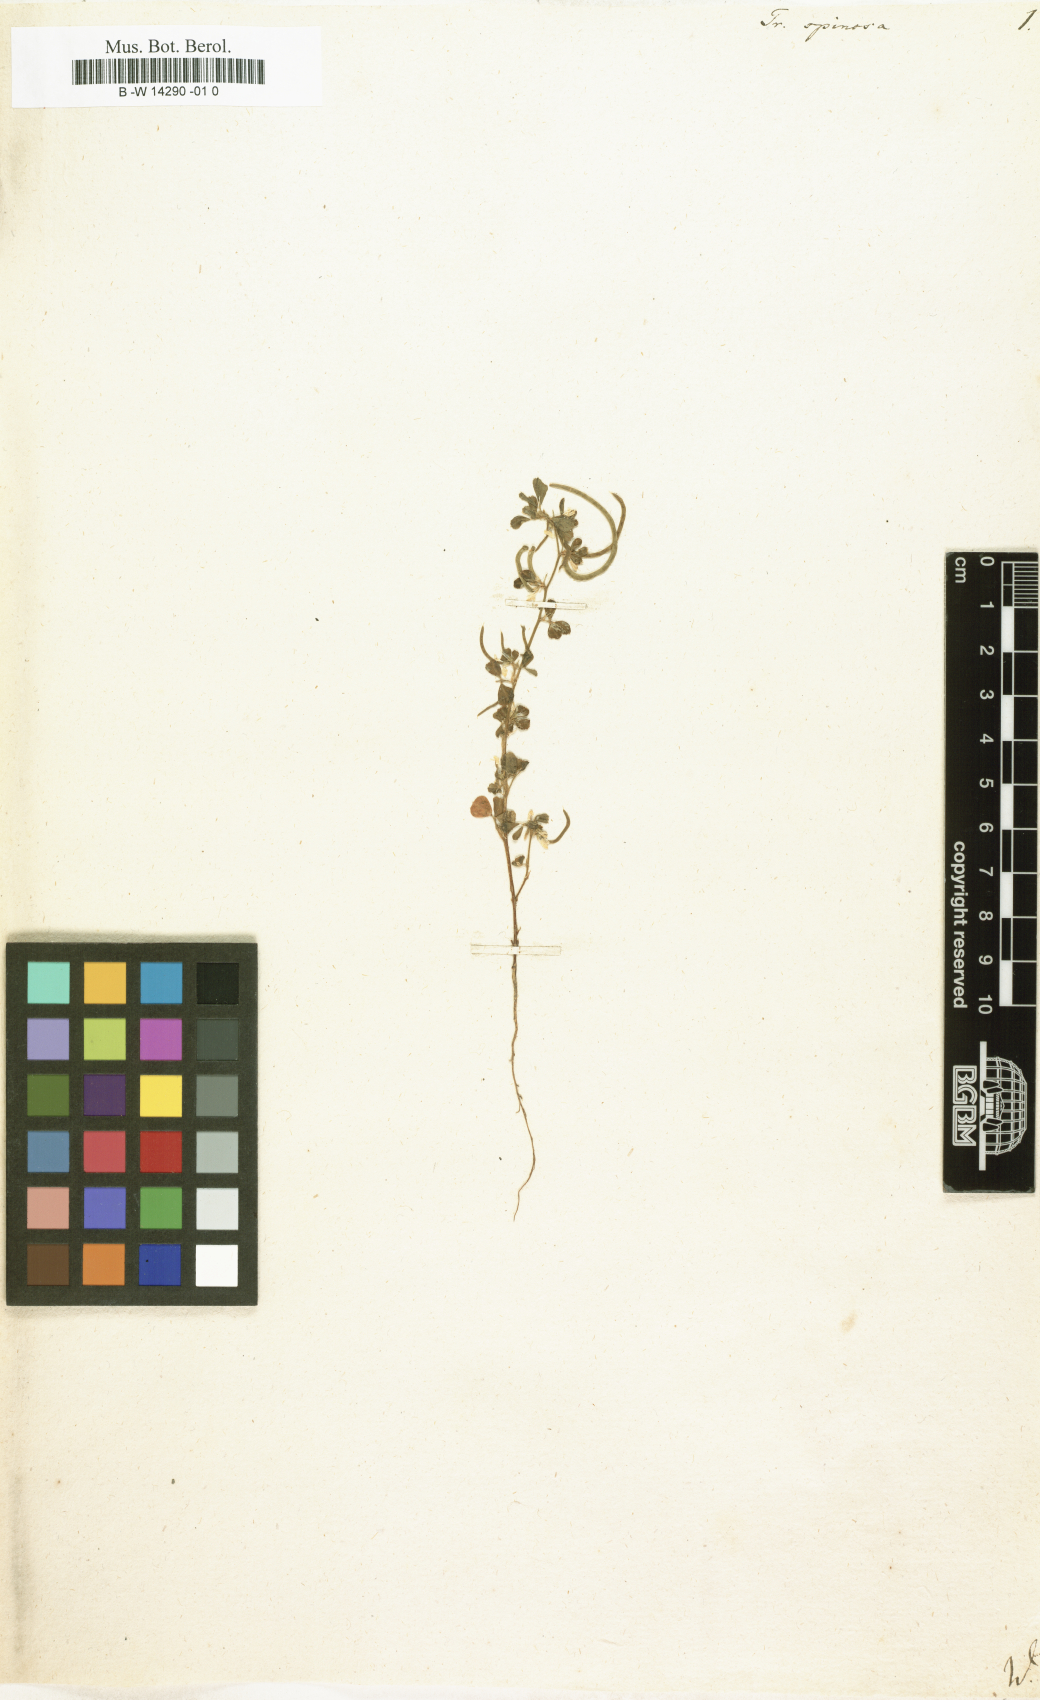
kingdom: Plantae
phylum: Tracheophyta
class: Magnoliopsida
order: Fabales
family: Fabaceae
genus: Trigonella
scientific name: Trigonella spinosa
